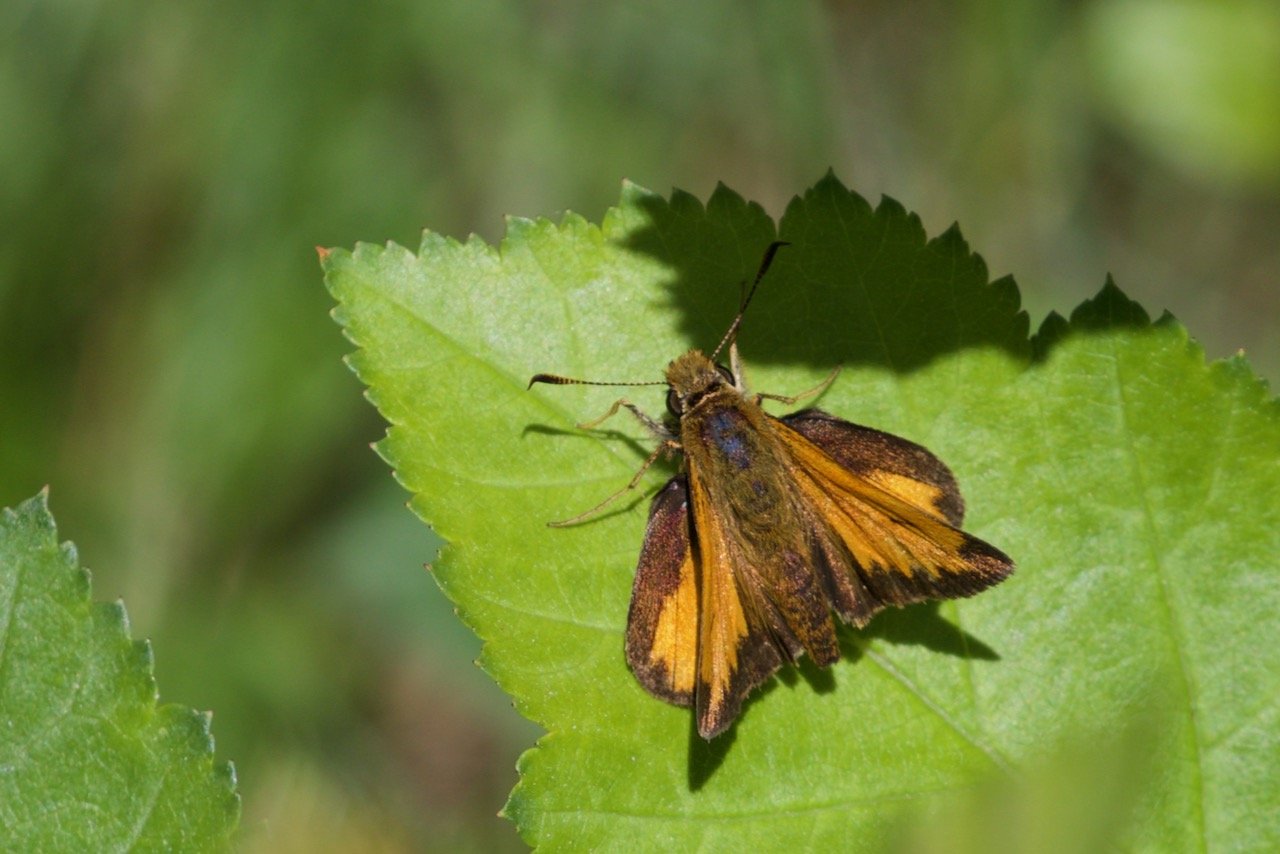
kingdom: Animalia
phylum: Arthropoda
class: Insecta
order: Lepidoptera
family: Hesperiidae
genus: Lon
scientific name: Lon hobomok
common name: Hobomok Skipper
